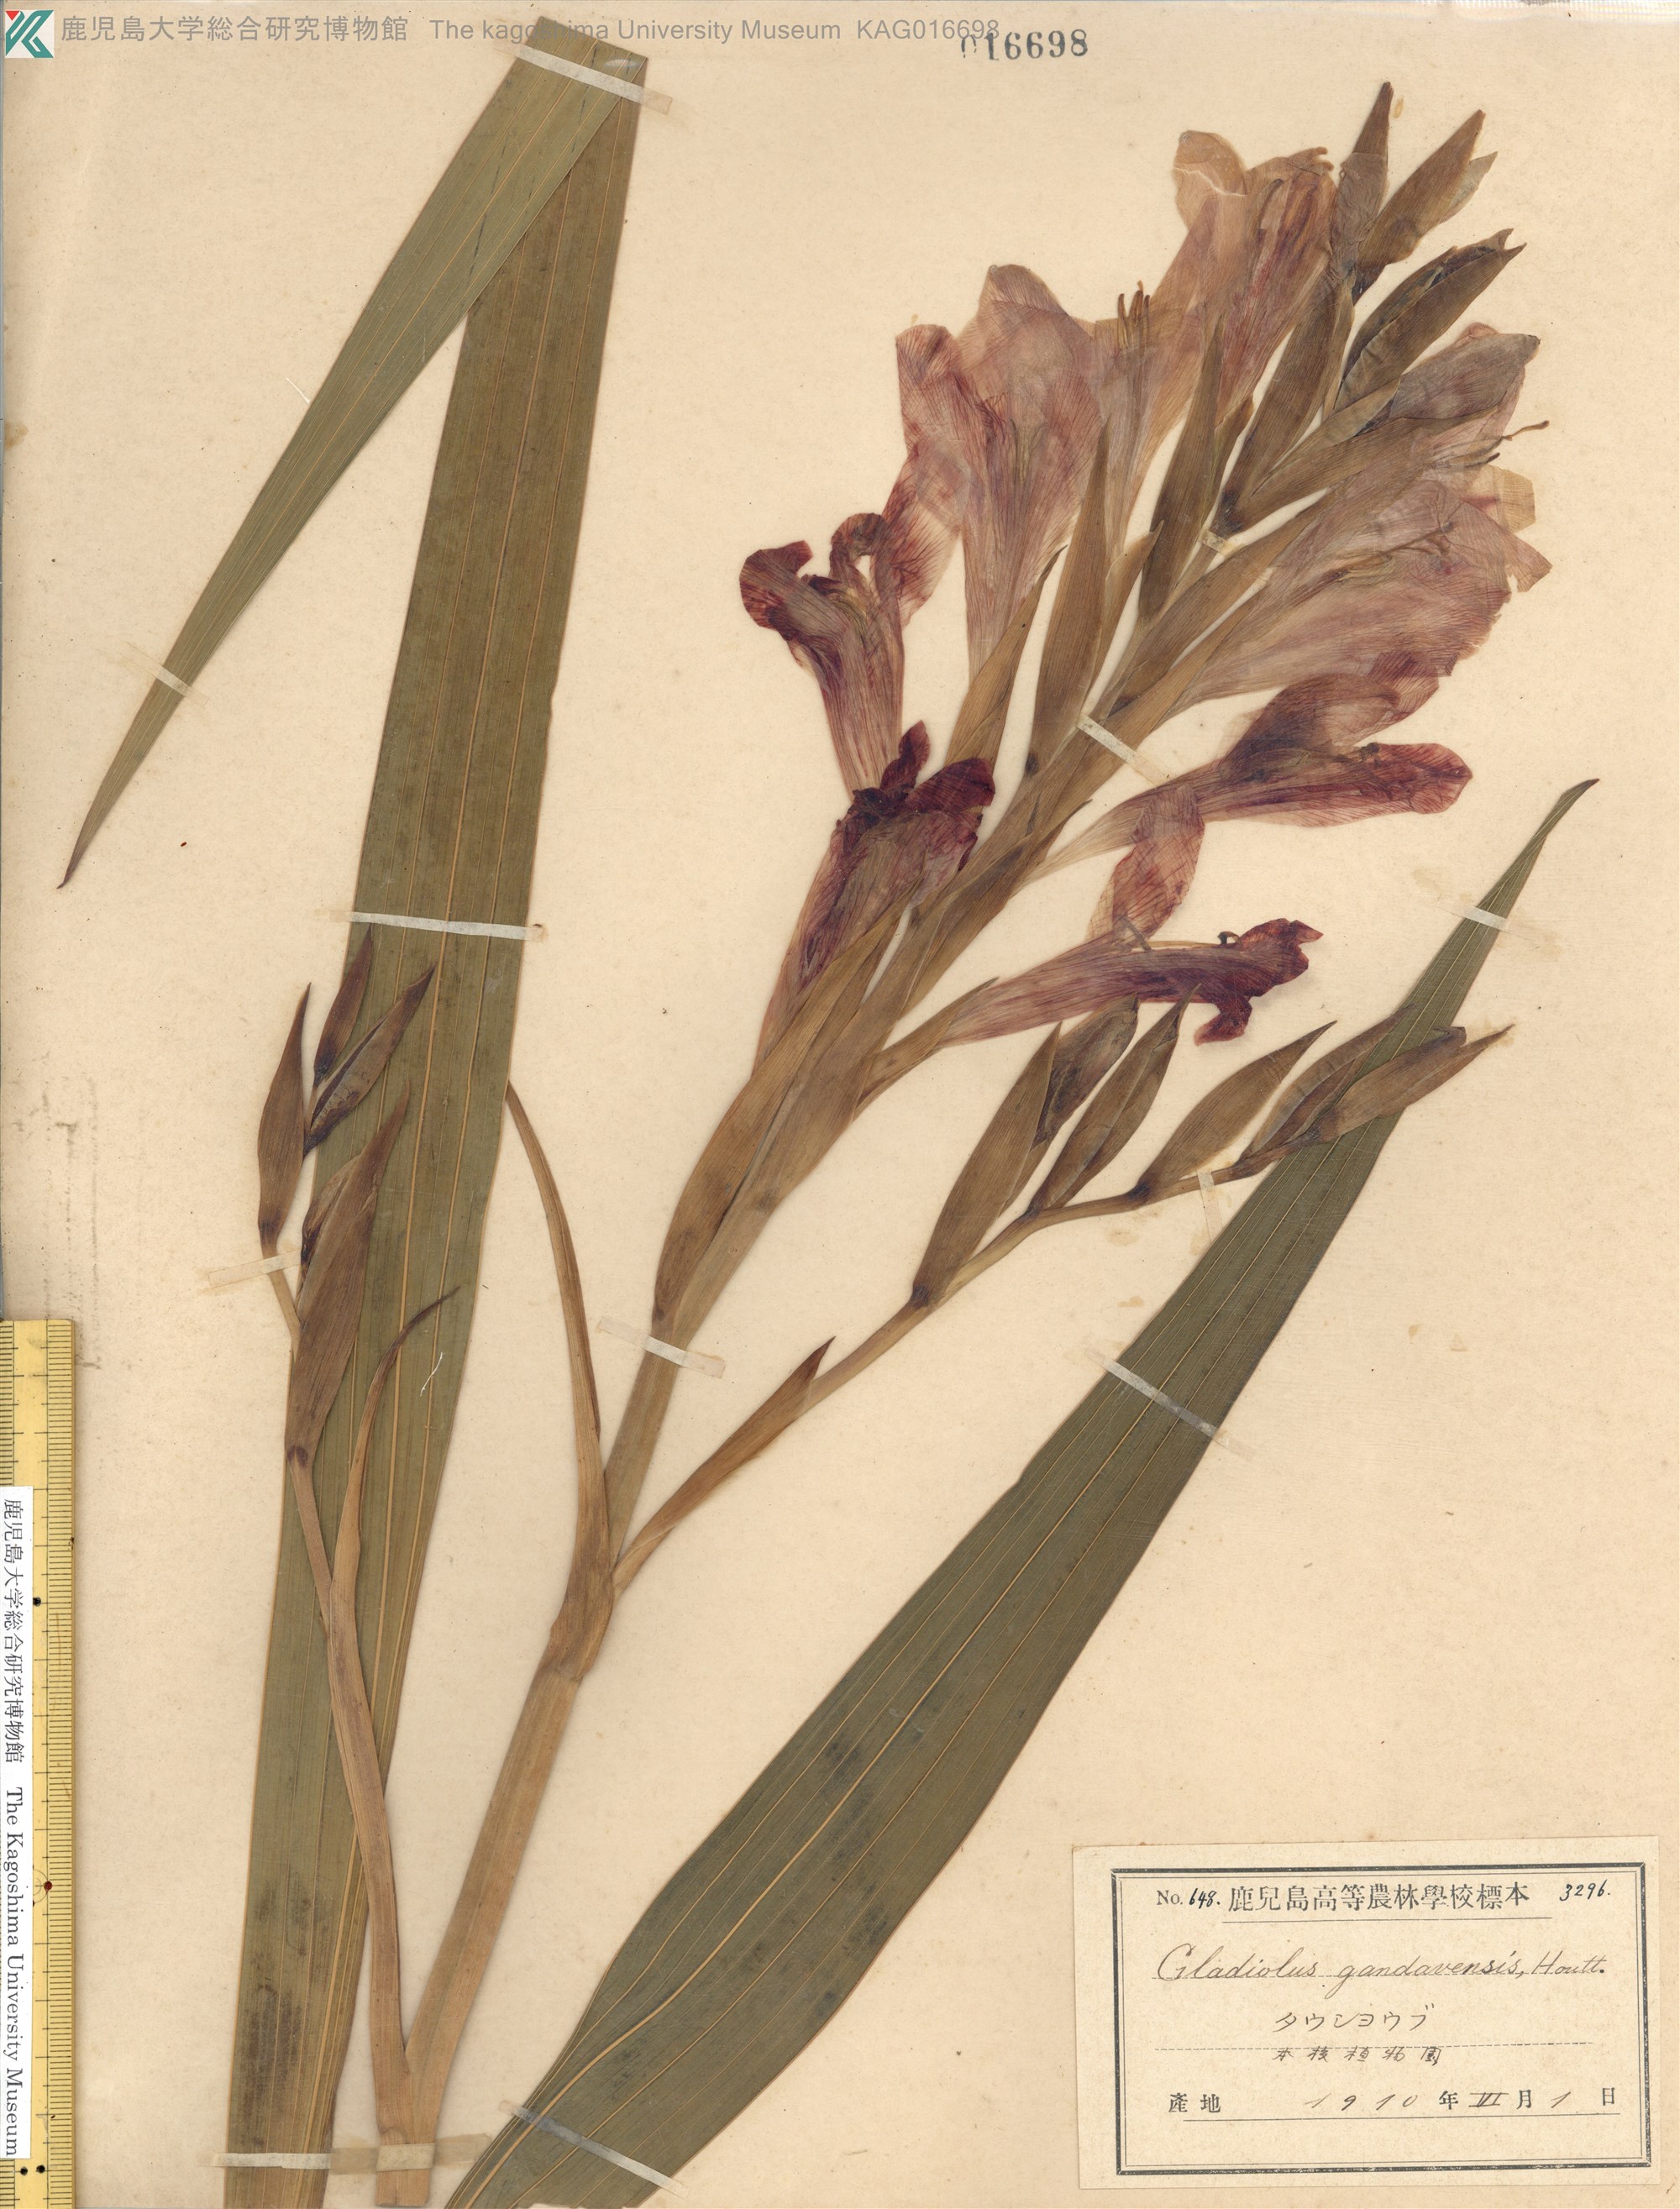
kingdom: Plantae
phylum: Tracheophyta
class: Liliopsida
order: Asparagales
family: Iridaceae
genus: Gladiolus
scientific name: Gladiolus colvillei
